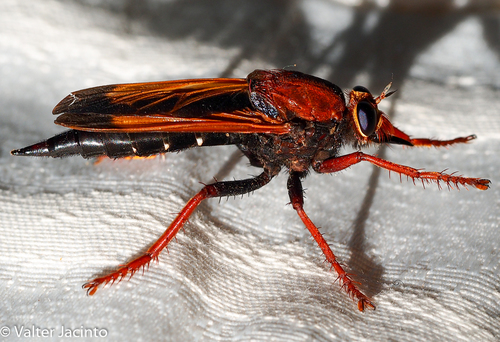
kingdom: Animalia
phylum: Arthropoda
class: Insecta
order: Diptera
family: Asilidae
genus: Asilus
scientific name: Asilus barbarus
